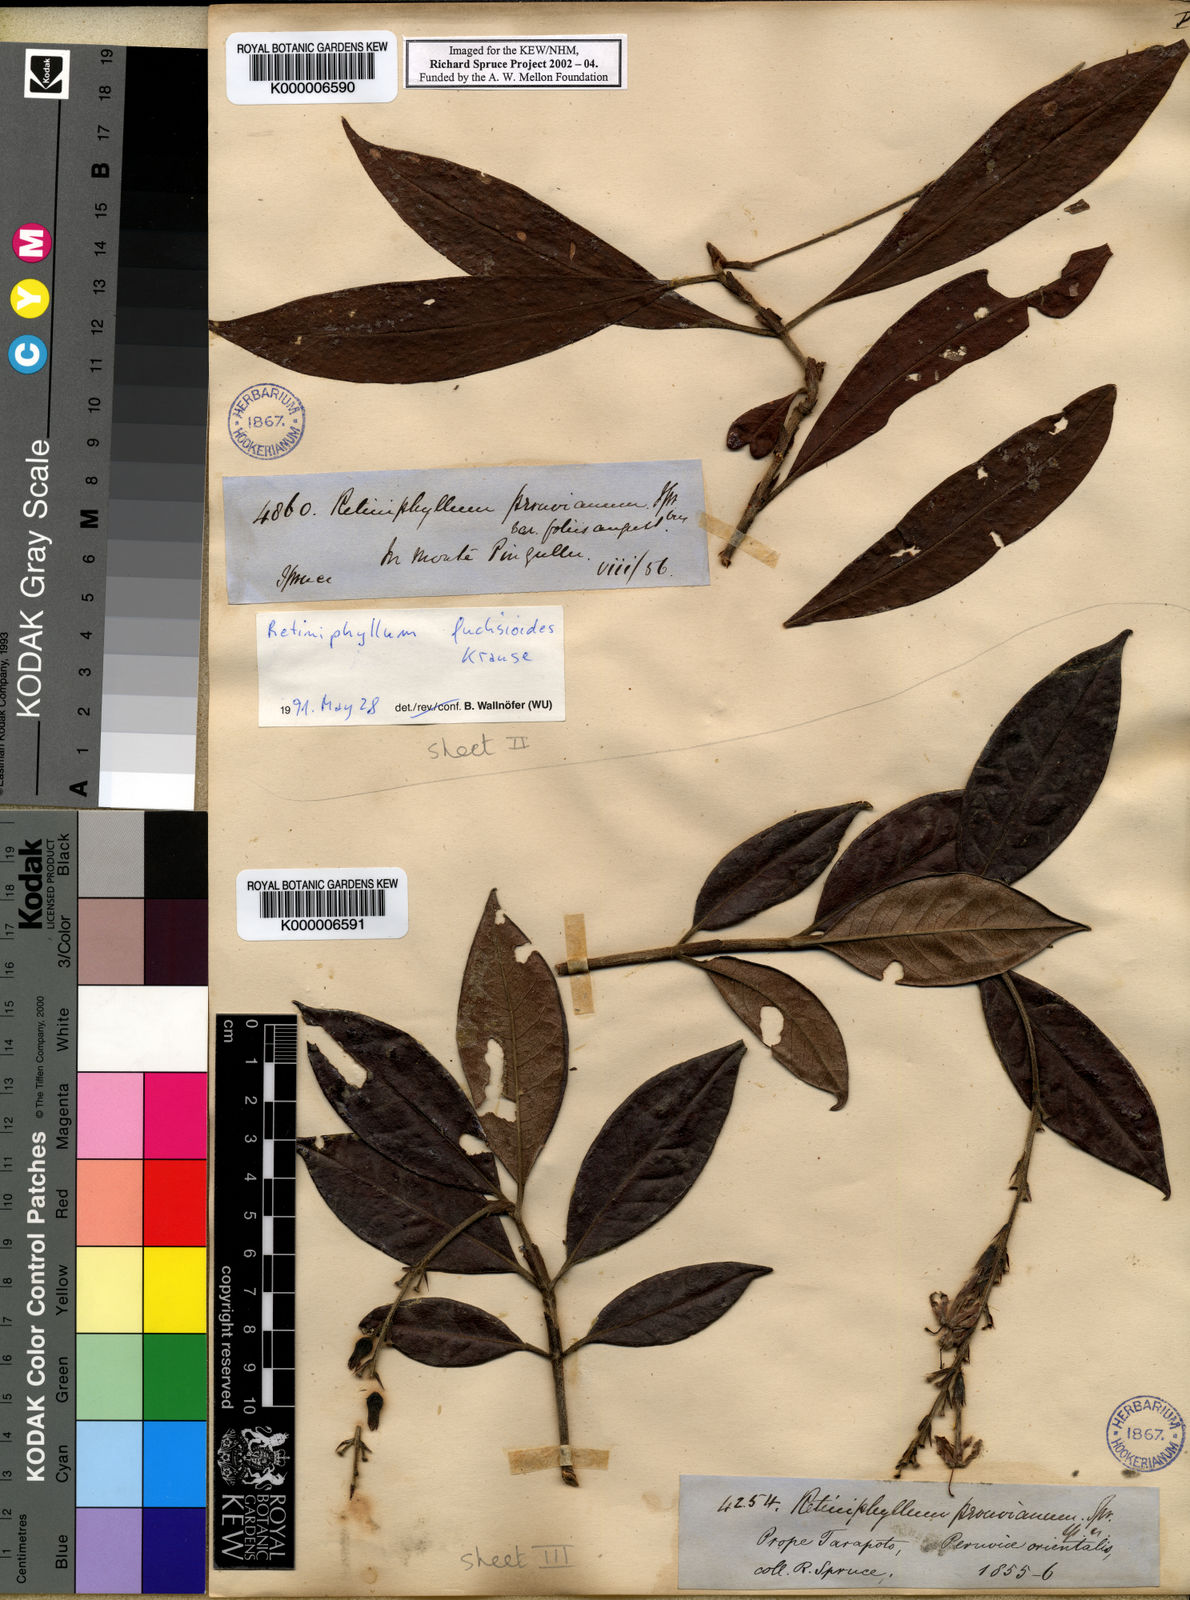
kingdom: Plantae
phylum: Tracheophyta
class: Magnoliopsida
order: Gentianales
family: Rubiaceae
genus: Retiniphyllum
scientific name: Retiniphyllum fuchsioides
